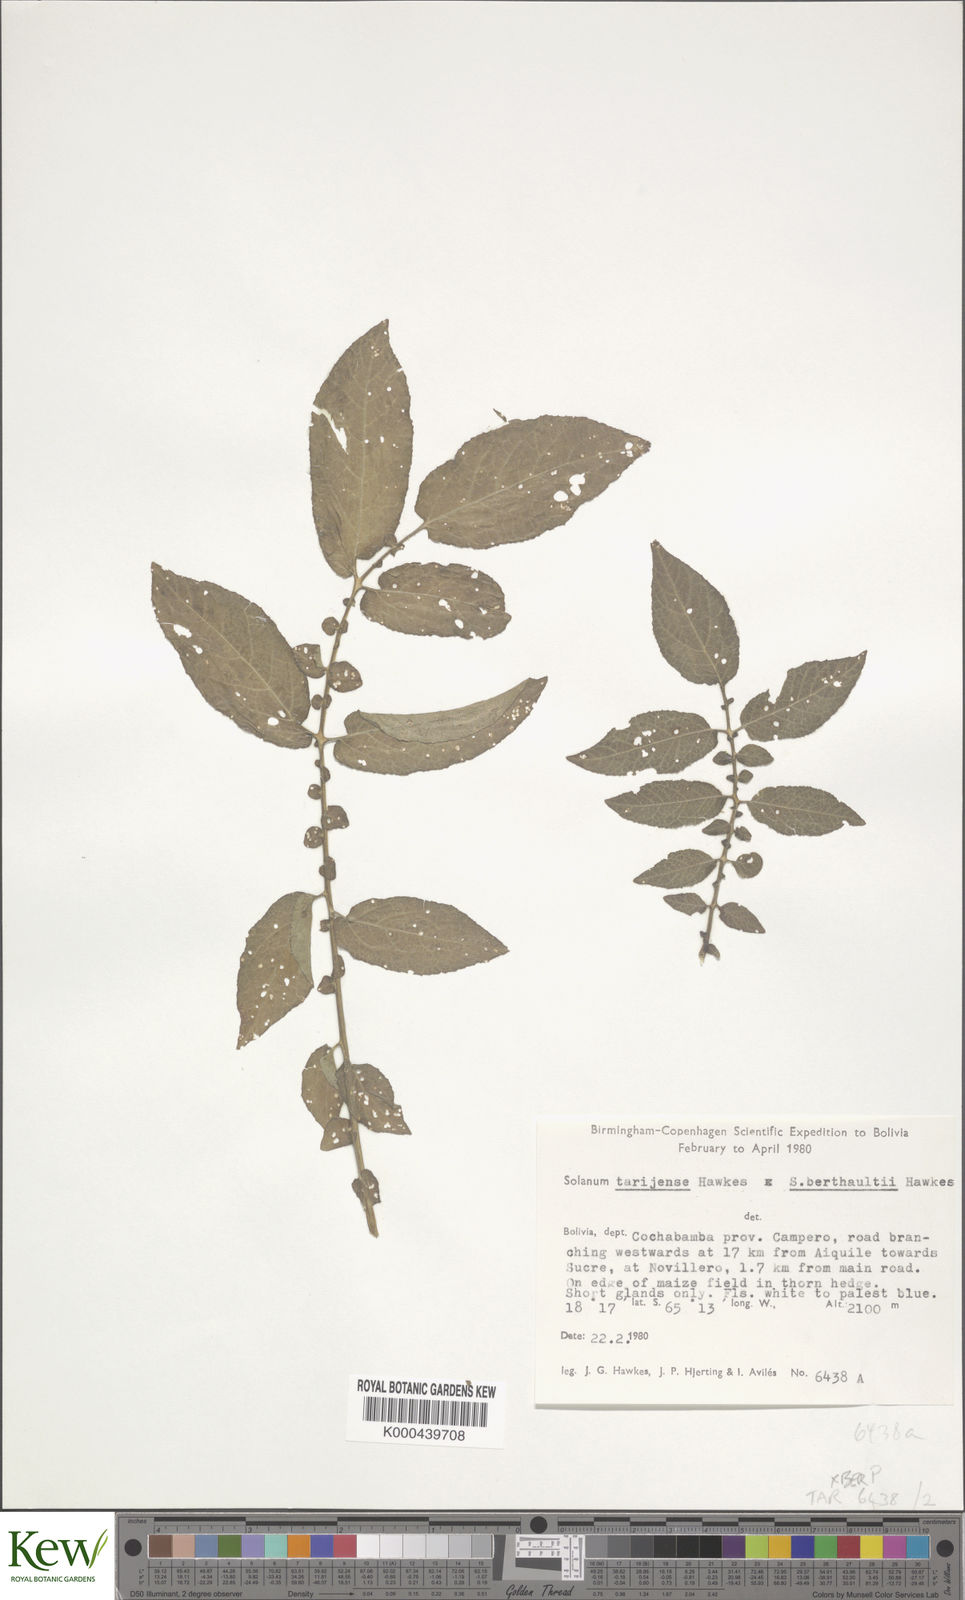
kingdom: Plantae
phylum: Tracheophyta
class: Magnoliopsida
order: Solanales
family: Solanaceae
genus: Solanum
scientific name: Solanum tarijense
